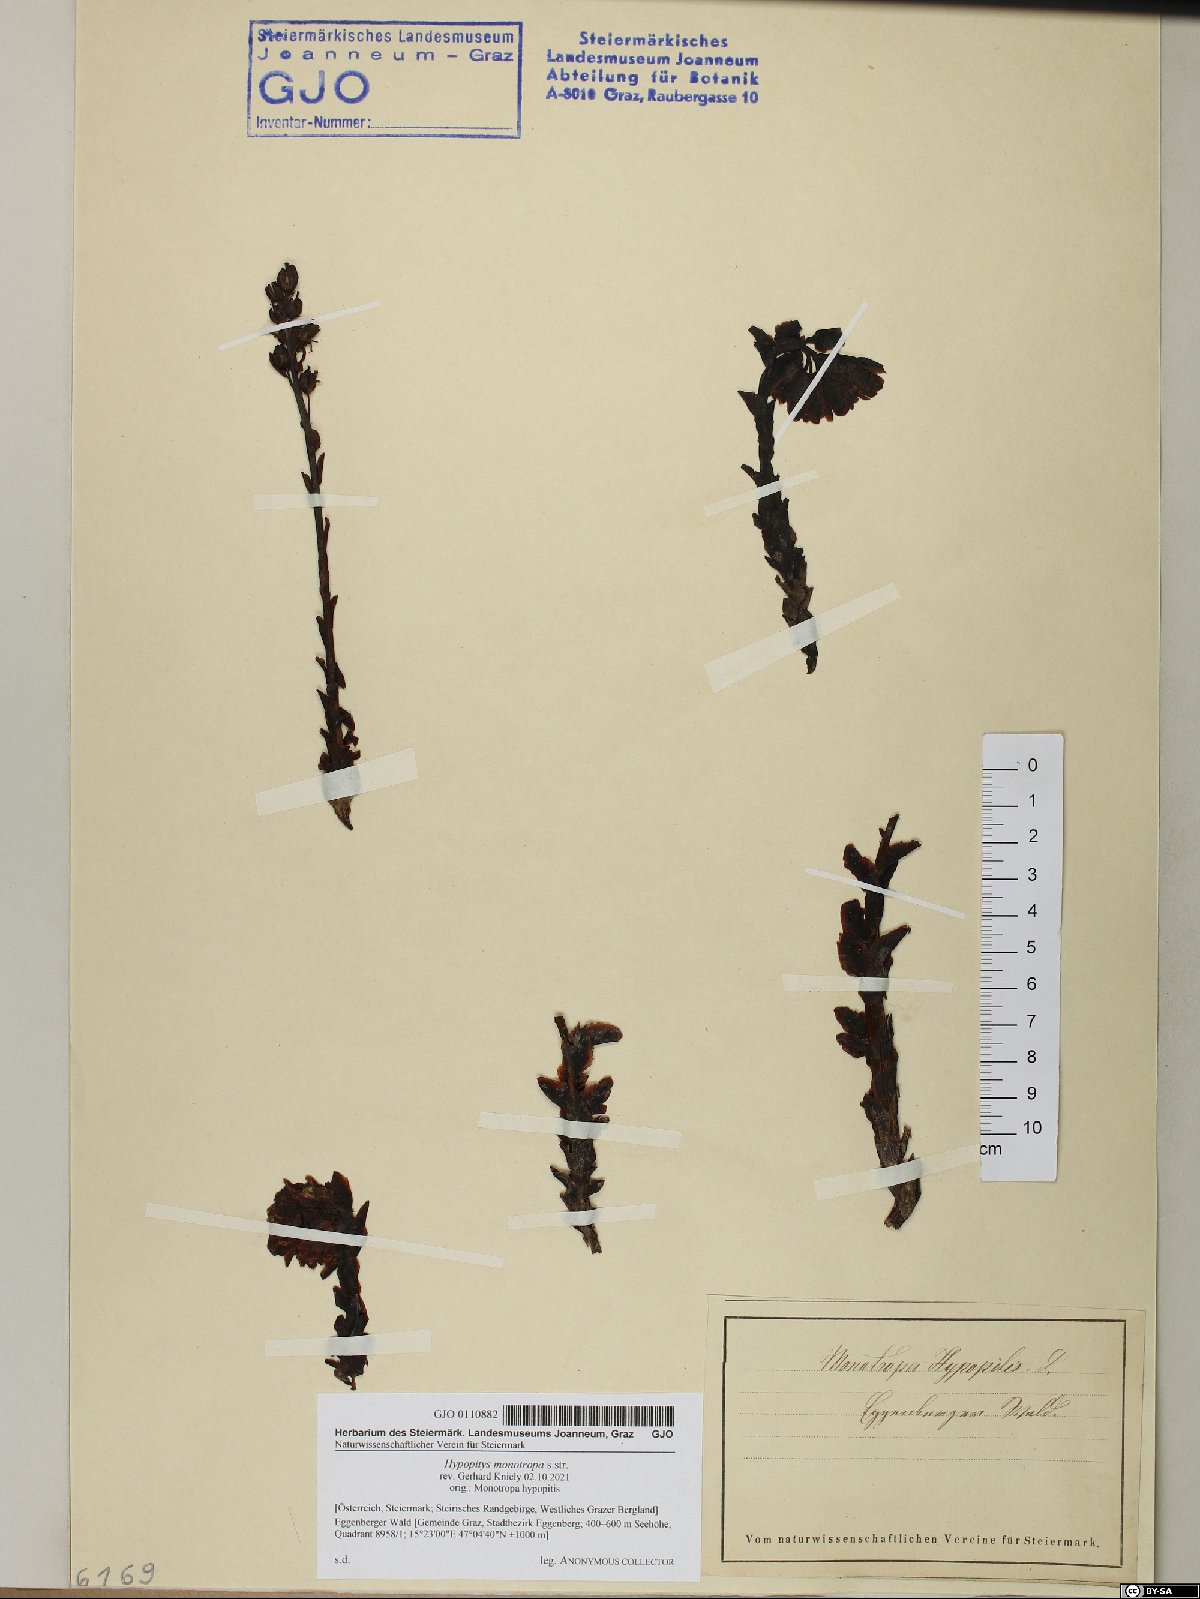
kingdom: Plantae
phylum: Tracheophyta
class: Magnoliopsida
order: Ericales
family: Ericaceae
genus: Hypopitys
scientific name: Hypopitys monotropa
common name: Yellow bird's-nest
